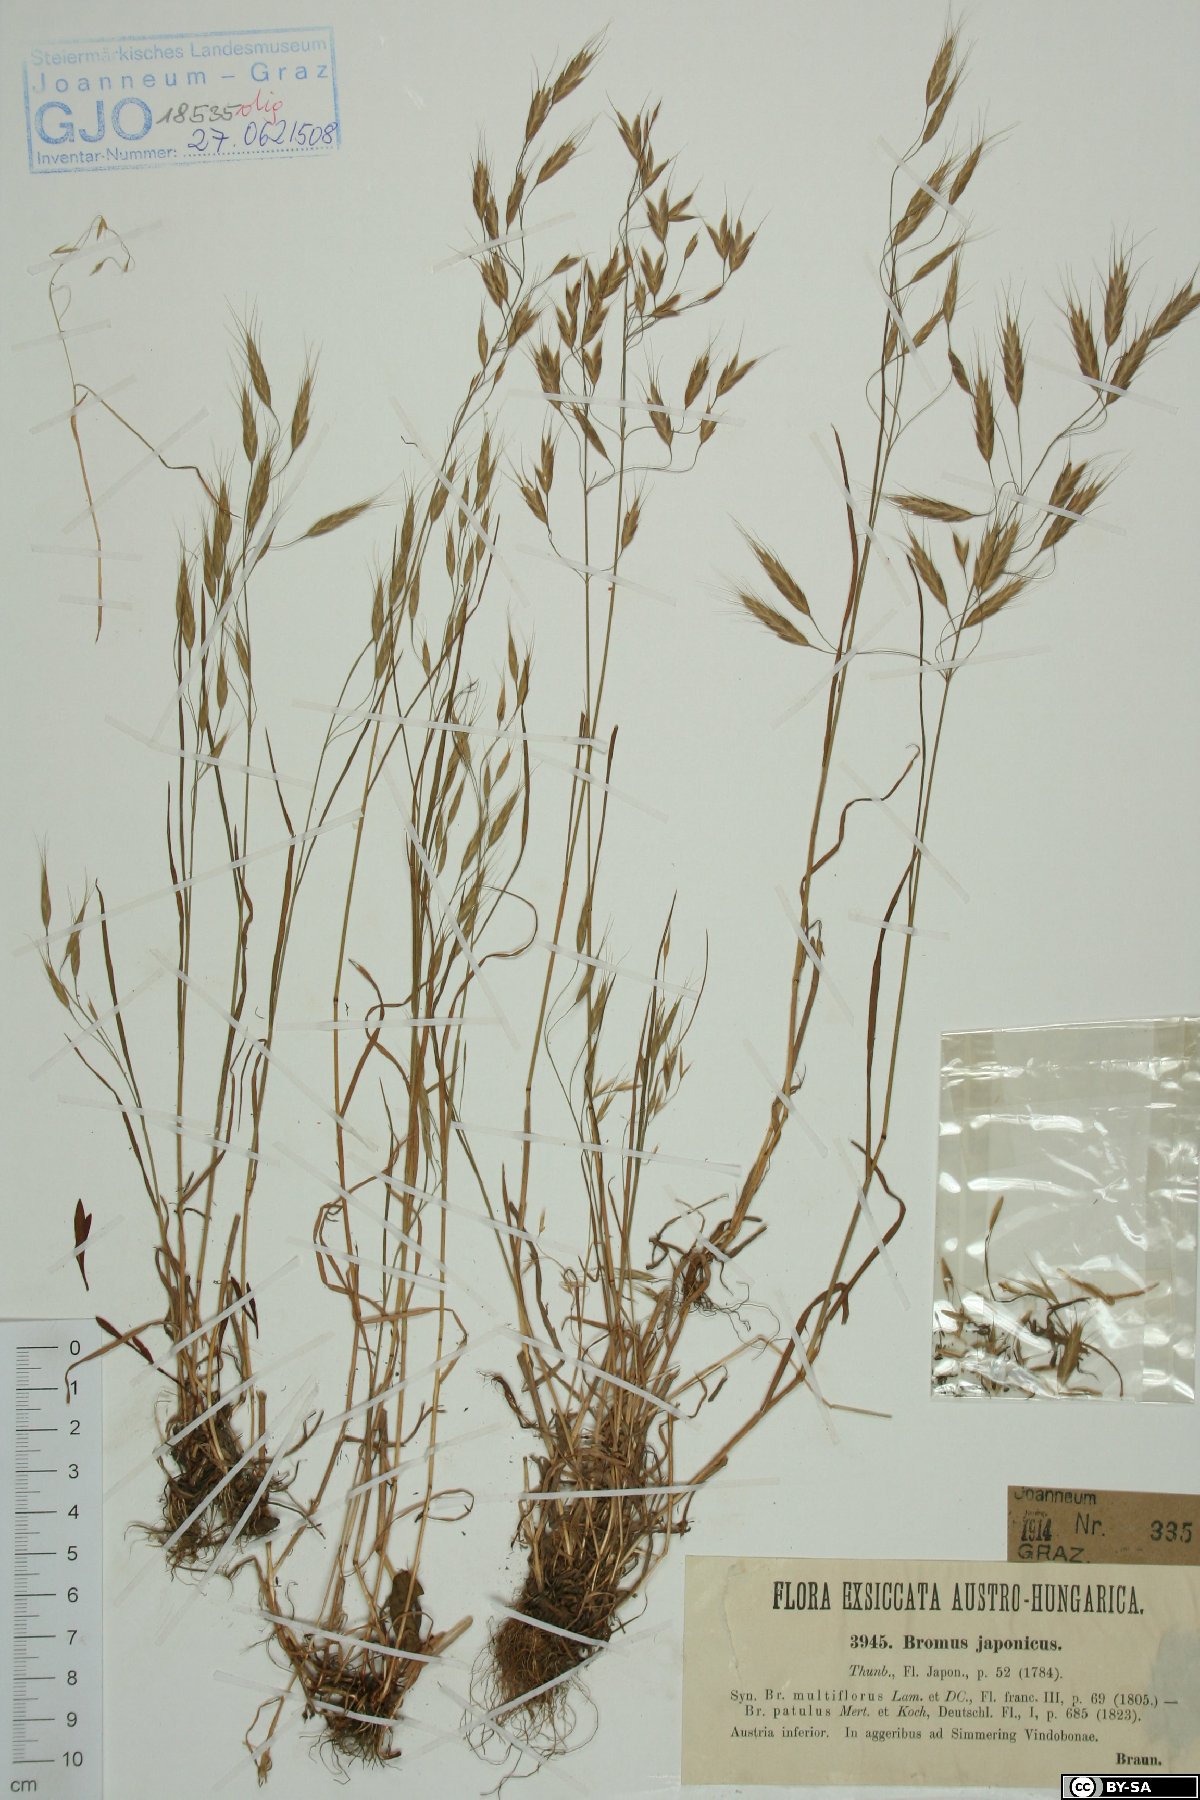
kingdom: Plantae
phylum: Tracheophyta
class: Liliopsida
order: Poales
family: Poaceae
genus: Bromus
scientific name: Bromus japonicus
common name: Japanese brome
